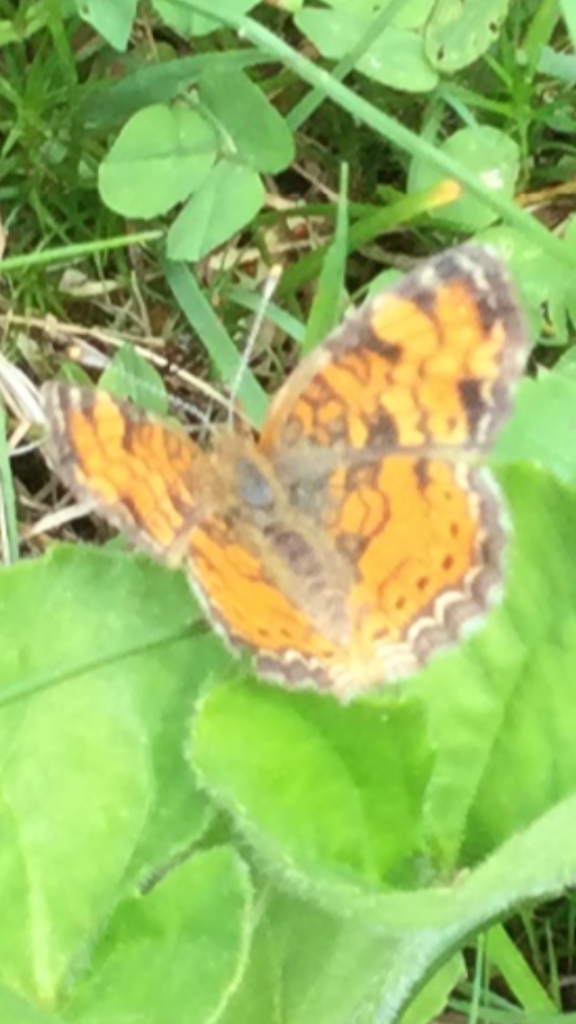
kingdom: Animalia
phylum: Arthropoda
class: Insecta
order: Lepidoptera
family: Nymphalidae
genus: Phyciodes
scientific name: Phyciodes tharos
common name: Pearl Crescent
